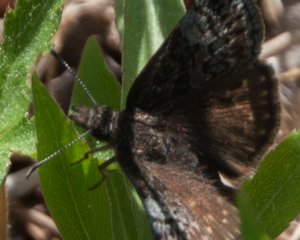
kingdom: Animalia
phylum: Arthropoda
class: Insecta
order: Lepidoptera
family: Hesperiidae
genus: Erynnis
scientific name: Erynnis icelus
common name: Dreamy Duskywing
